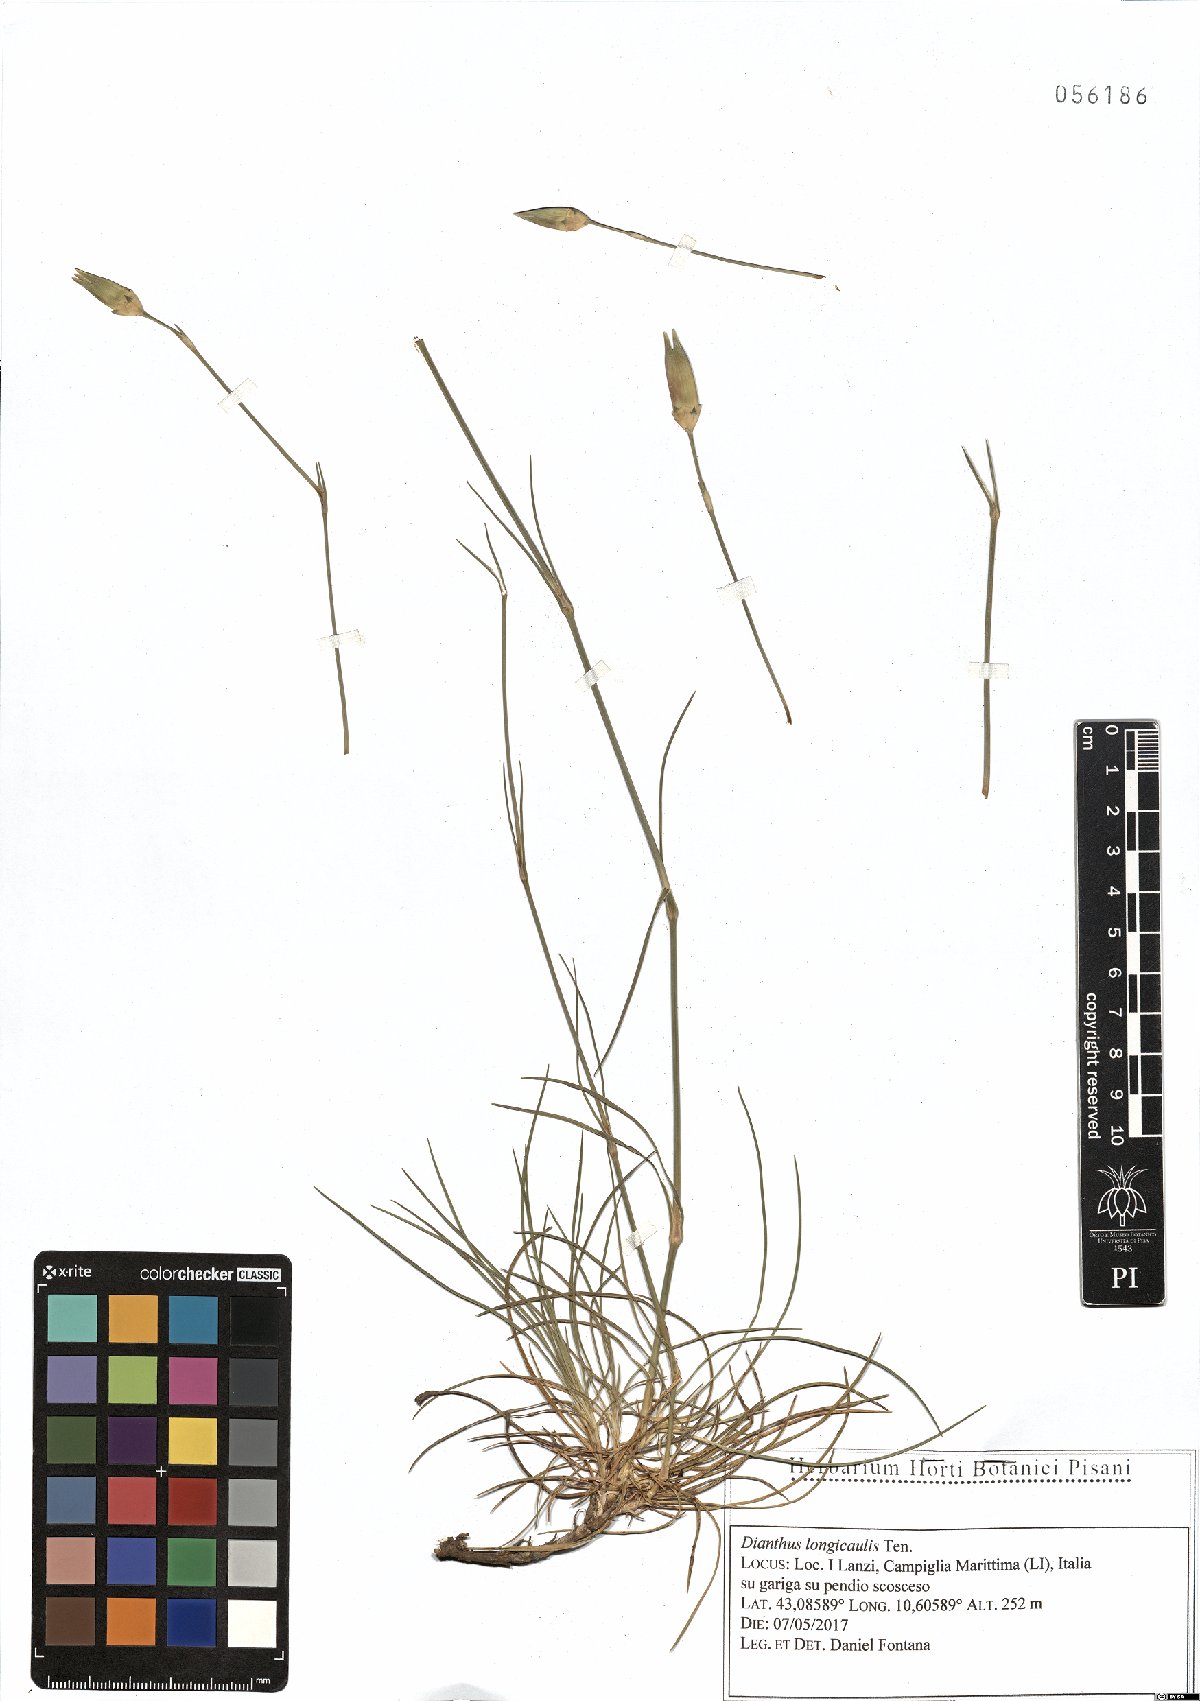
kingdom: Plantae
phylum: Tracheophyta
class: Magnoliopsida
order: Caryophyllales
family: Caryophyllaceae
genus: Dianthus
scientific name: Dianthus virgineus
